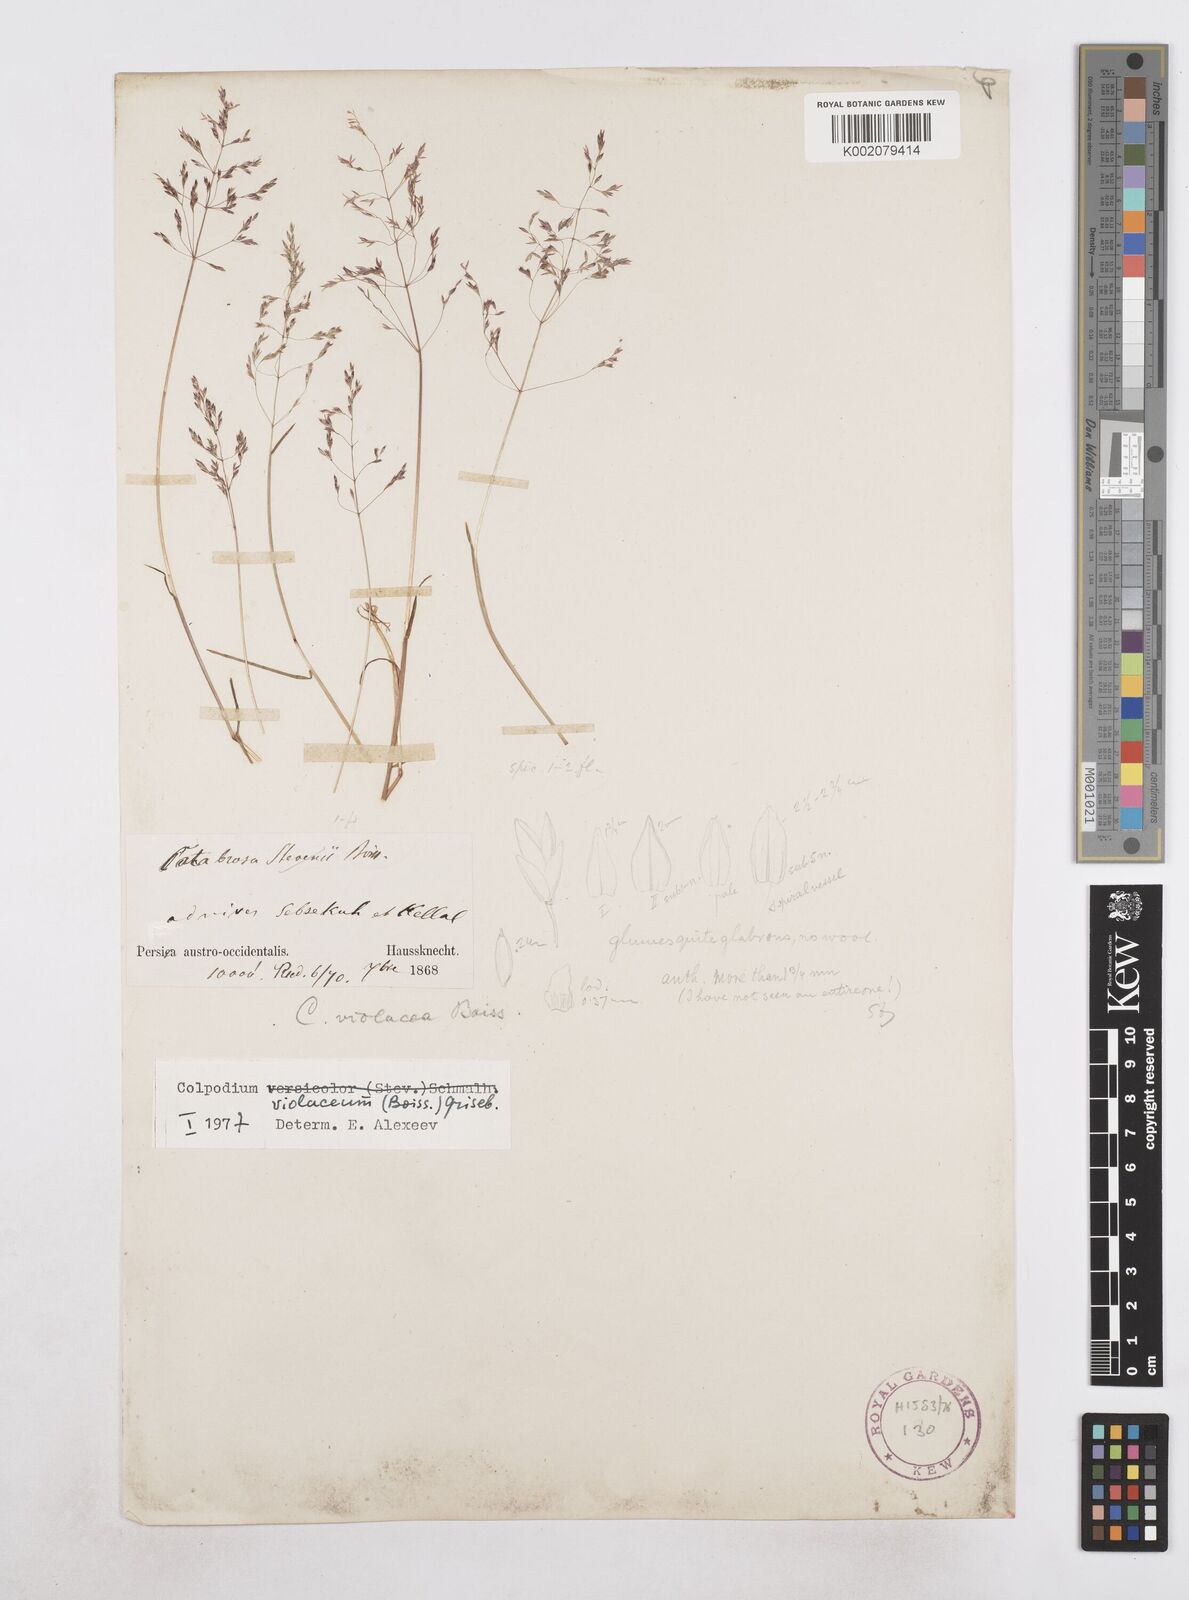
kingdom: Plantae
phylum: Tracheophyta
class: Liliopsida
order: Poales
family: Poaceae
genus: Catabrosella
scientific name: Catabrosella violacea
